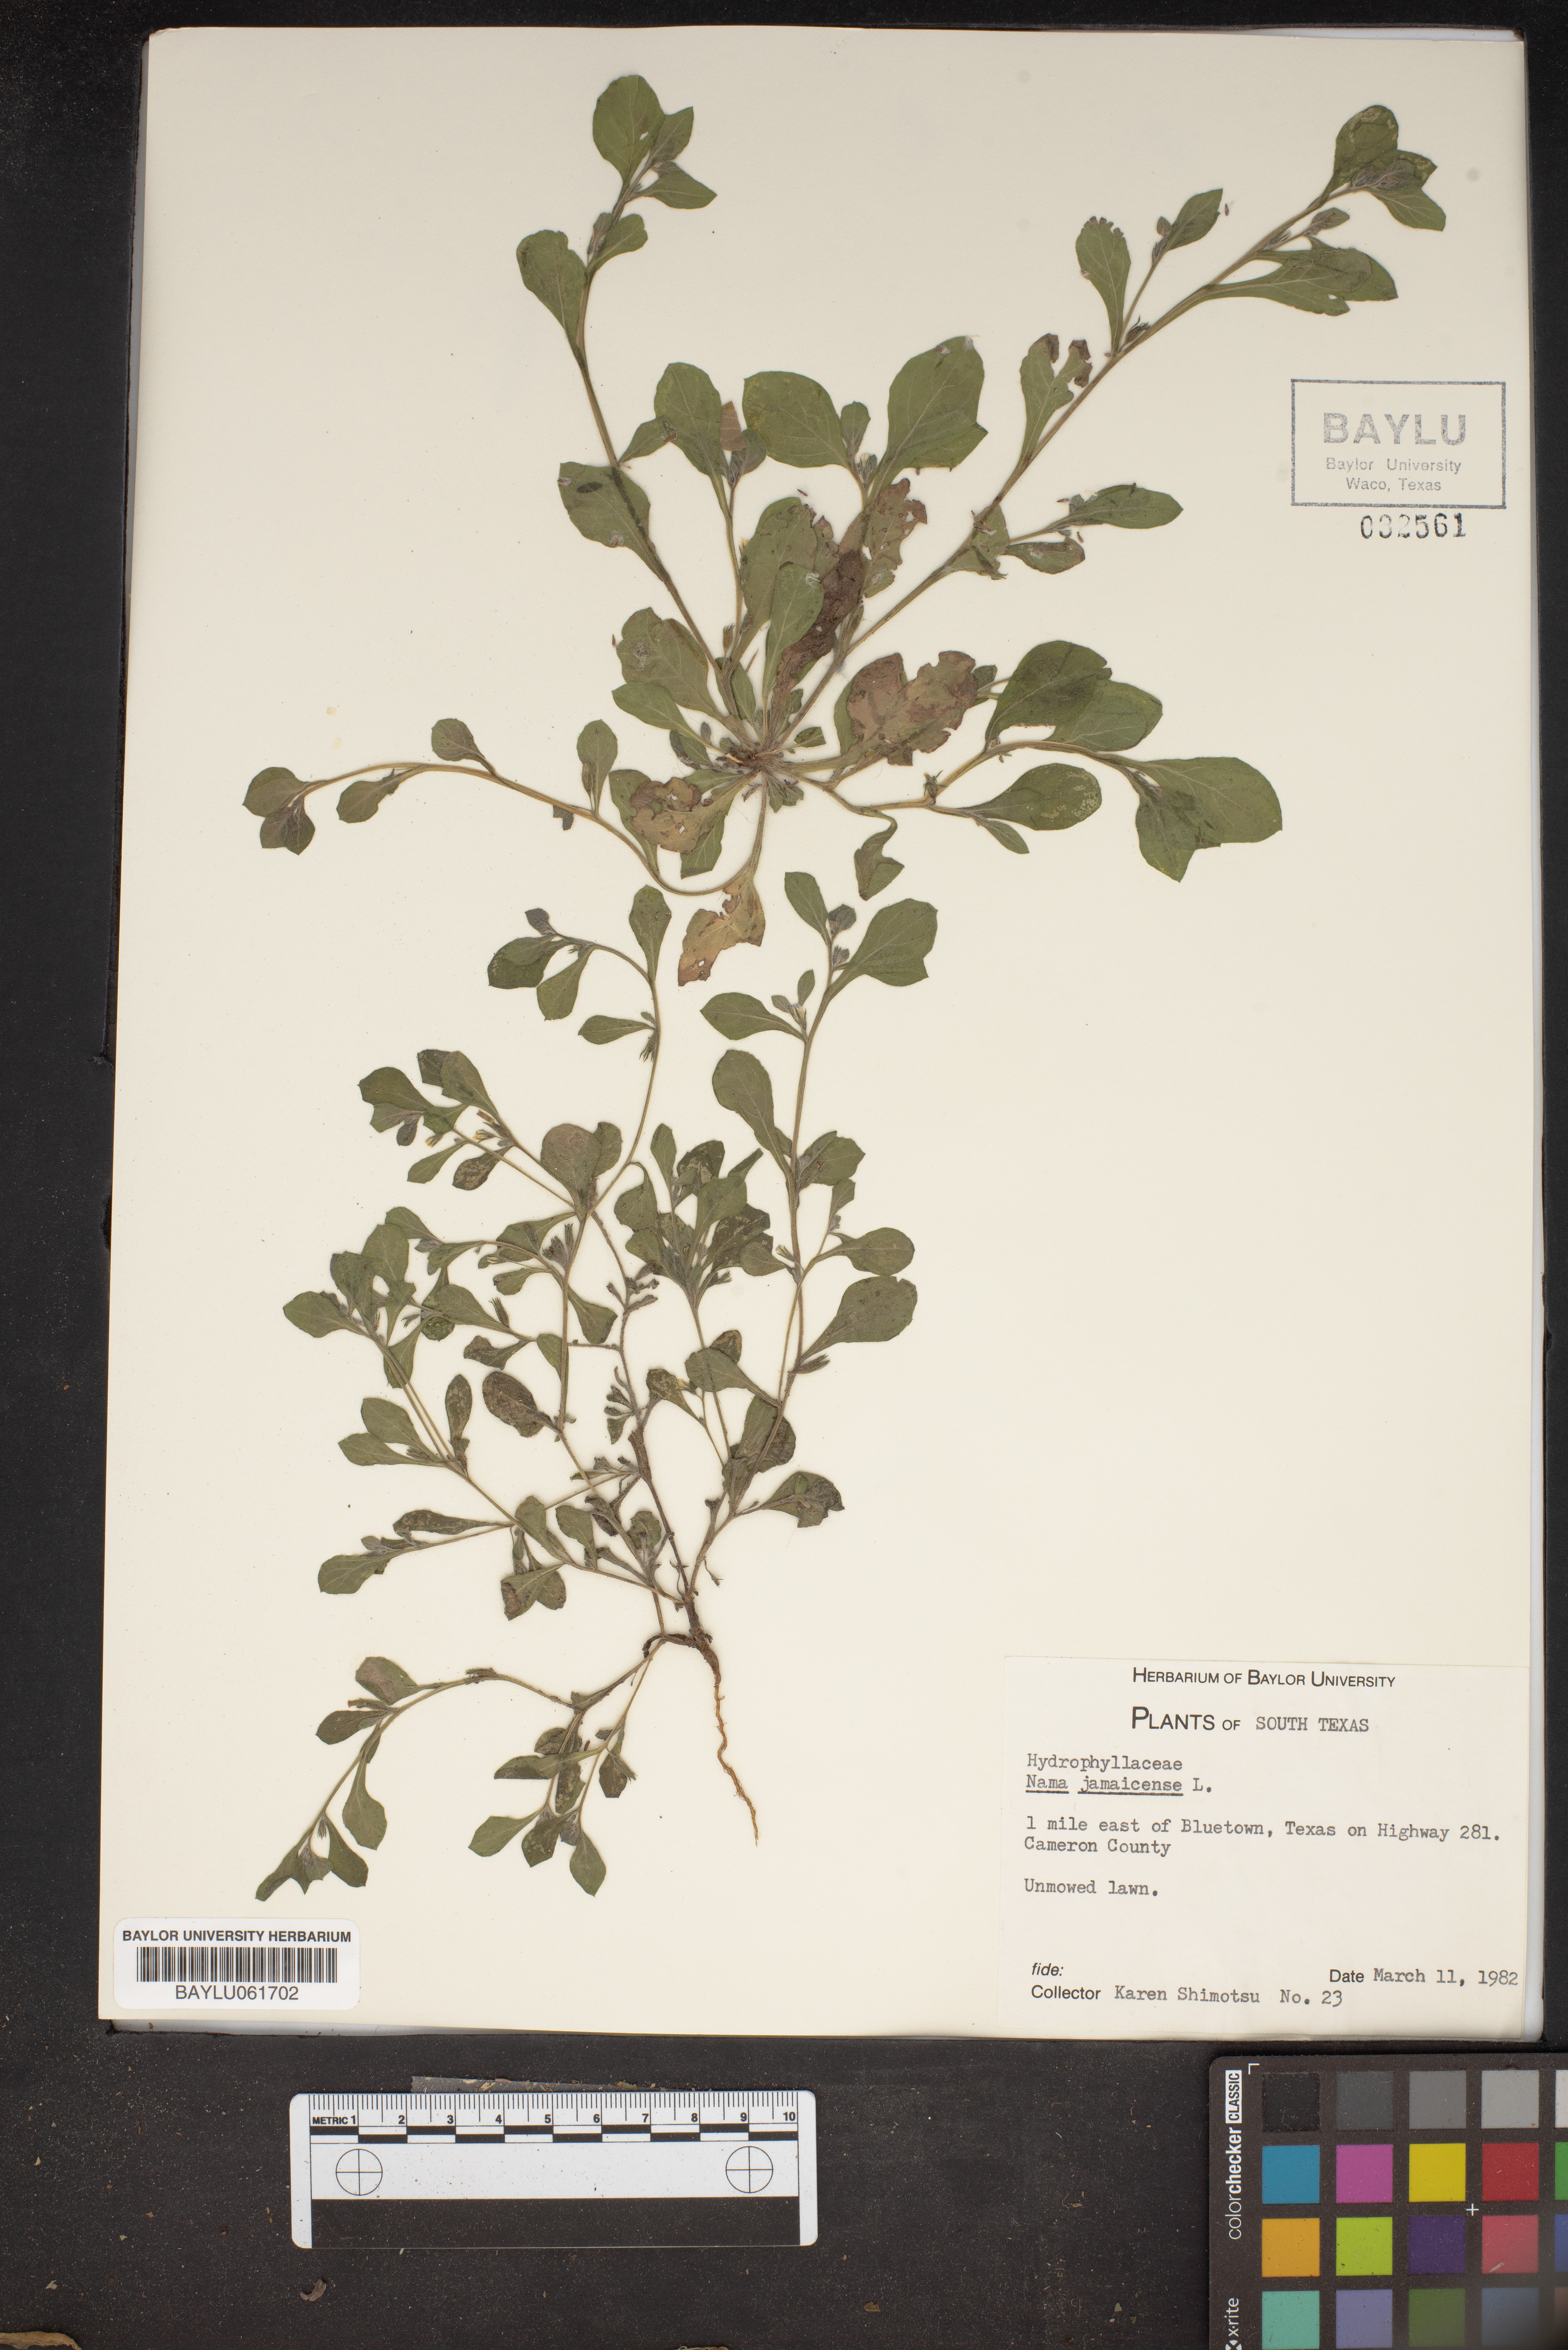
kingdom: Plantae
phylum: Tracheophyta
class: Magnoliopsida
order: Boraginales
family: Namaceae
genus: Nama
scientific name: Nama jamaicense
